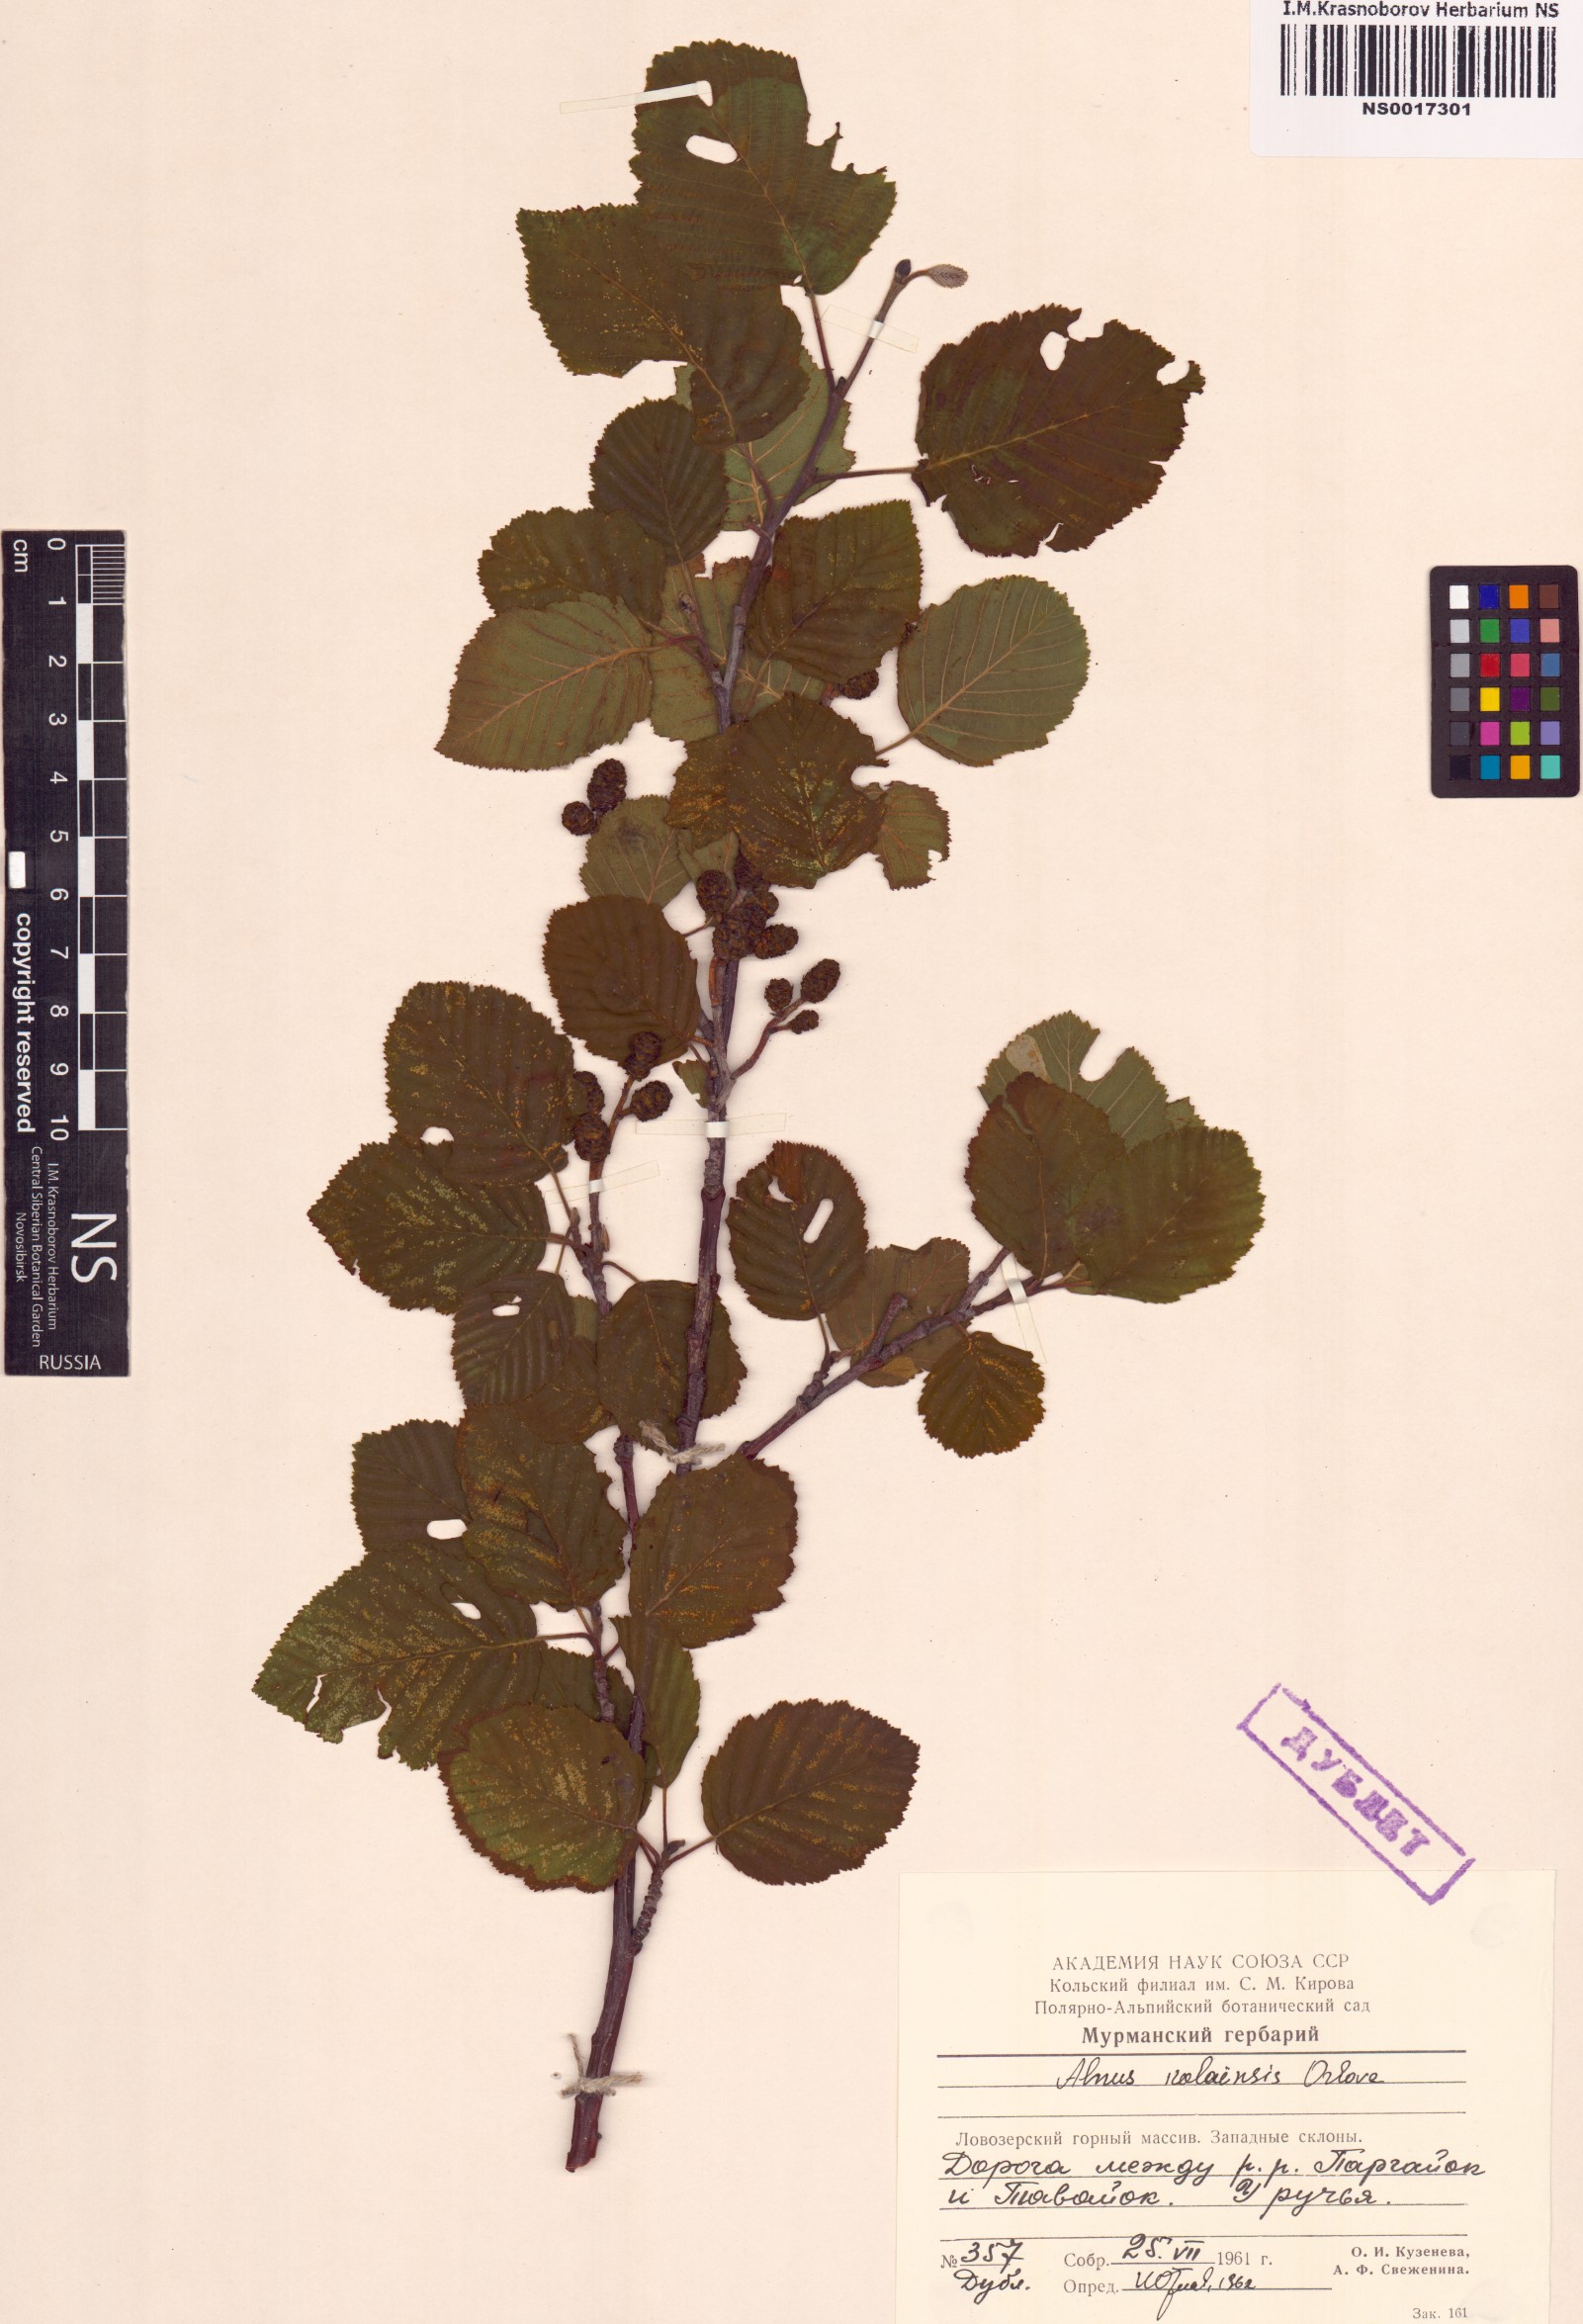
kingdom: Plantae
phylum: Tracheophyta
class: Magnoliopsida
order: Fagales
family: Betulaceae
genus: Alnus
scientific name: Alnus incana
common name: Grey alder
